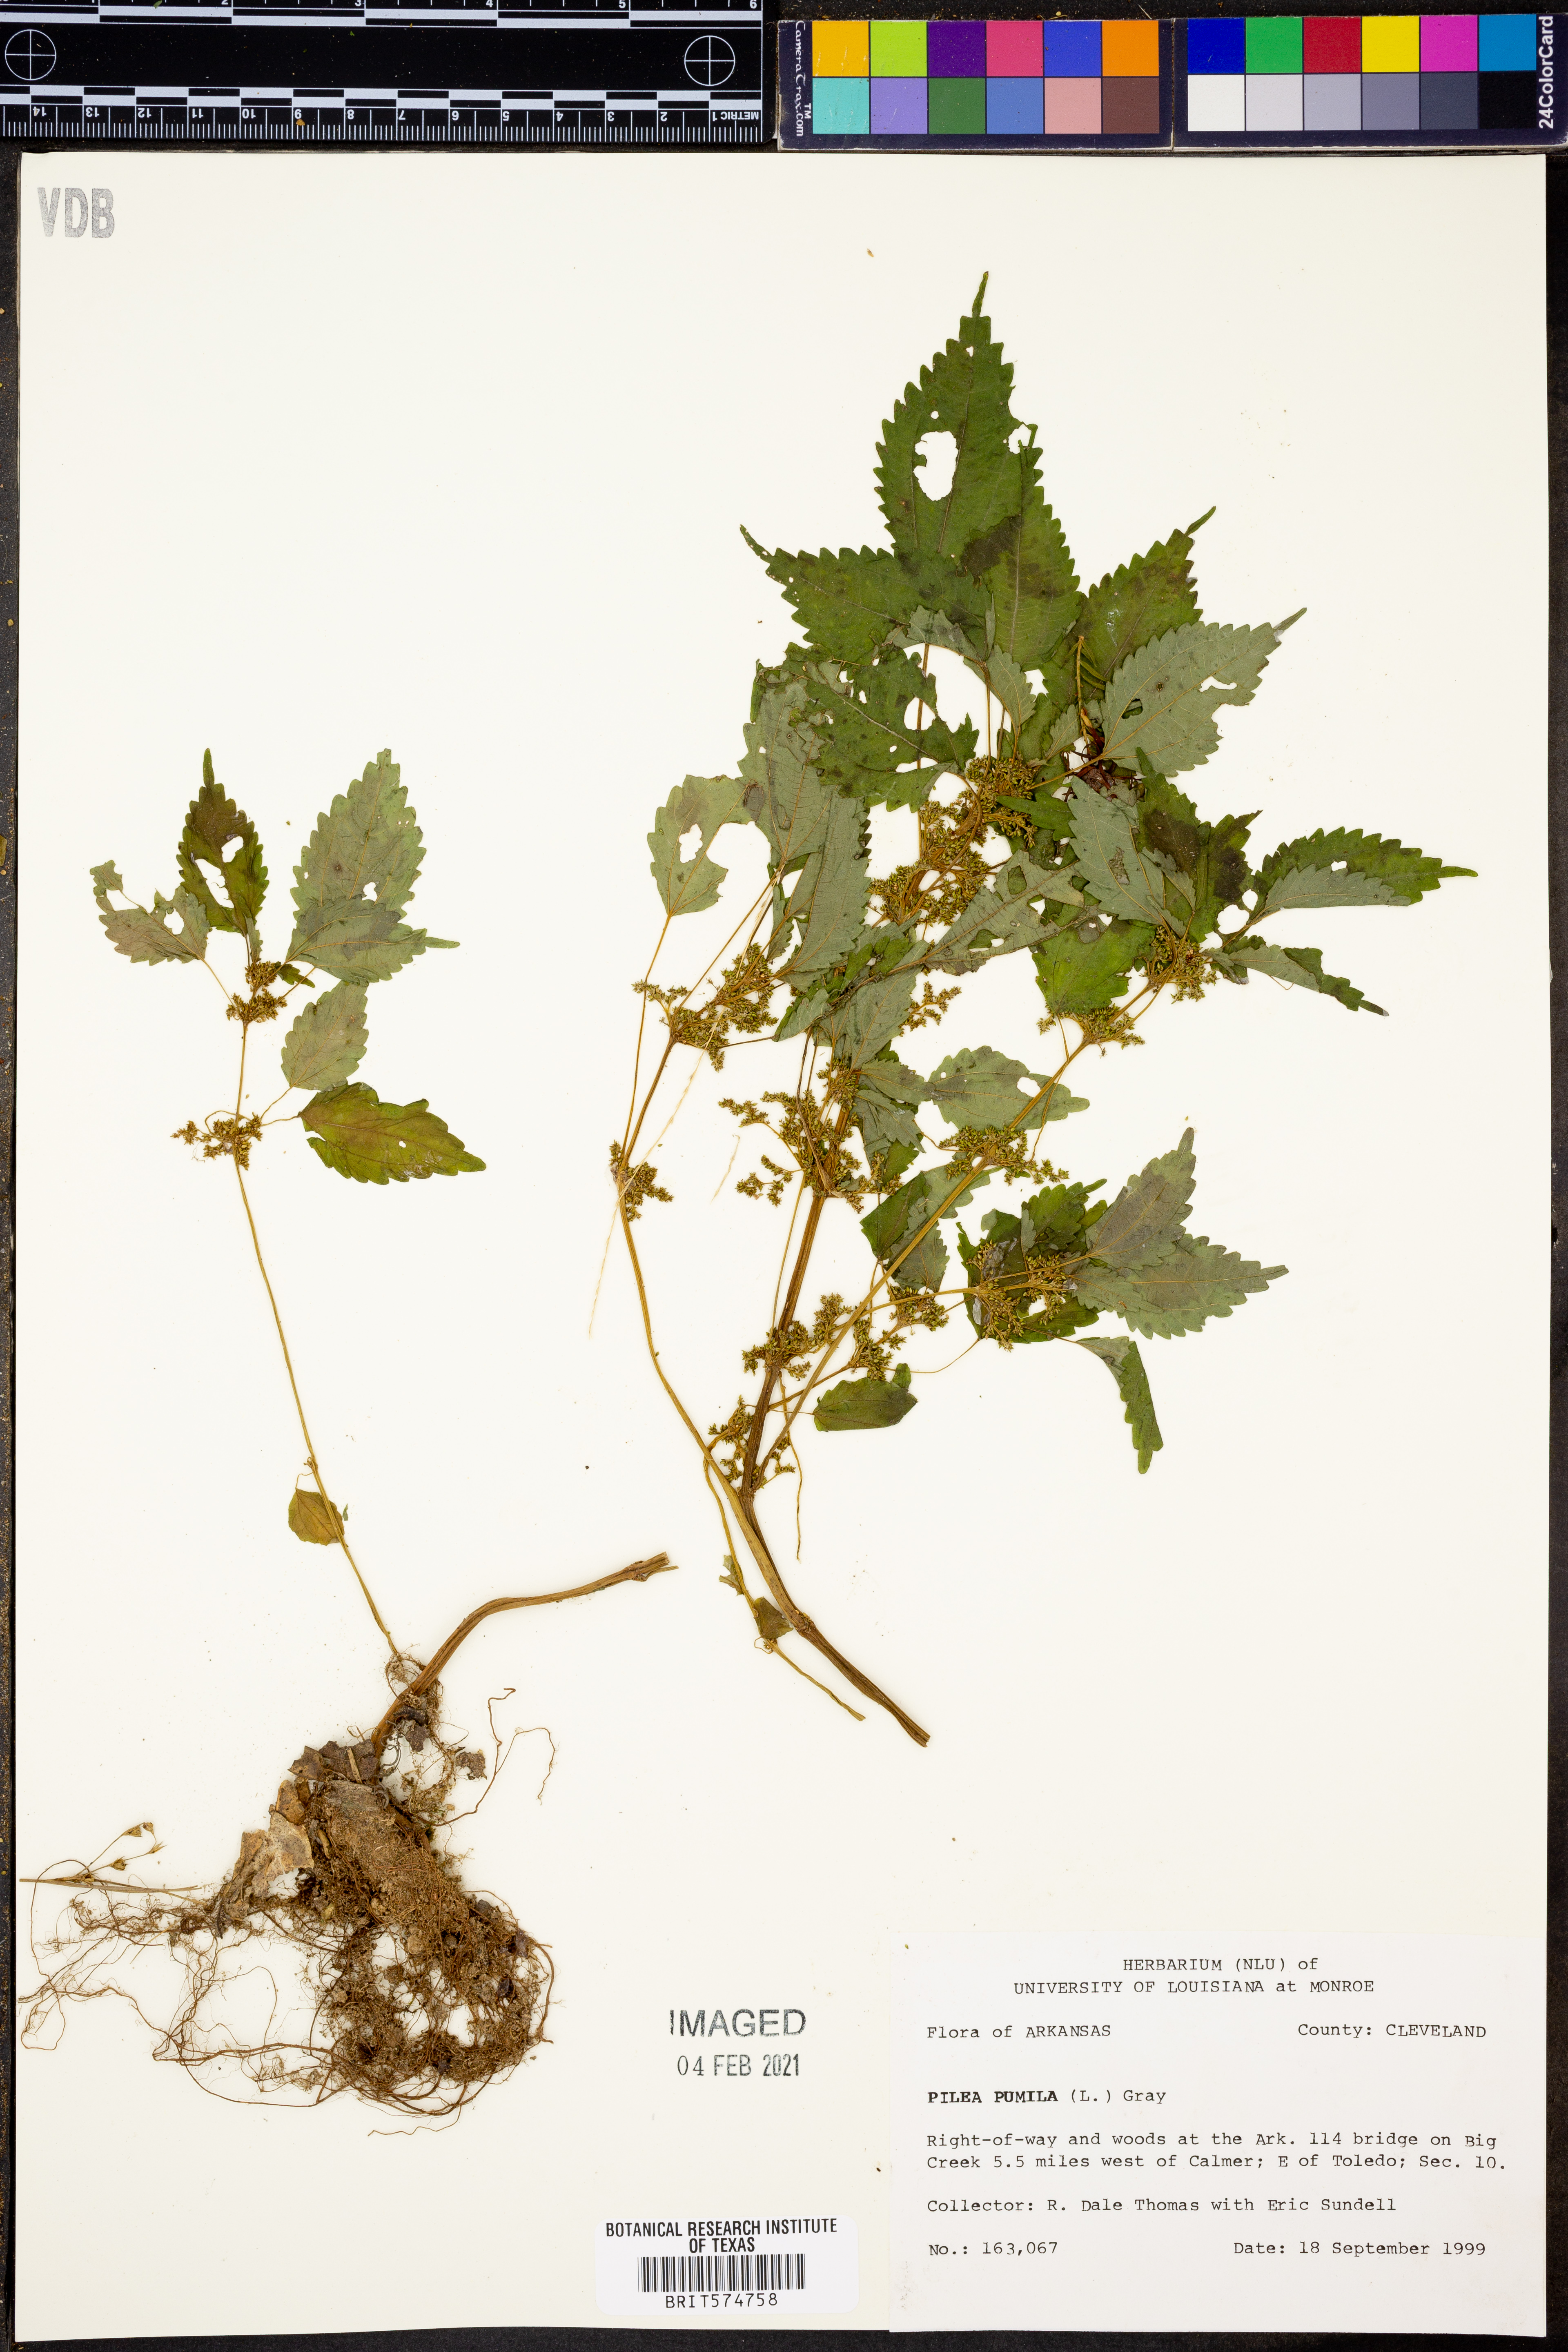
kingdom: Plantae
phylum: Tracheophyta
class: Magnoliopsida
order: Rosales
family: Urticaceae
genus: Pilea
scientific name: Pilea pumila
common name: Clearweed
